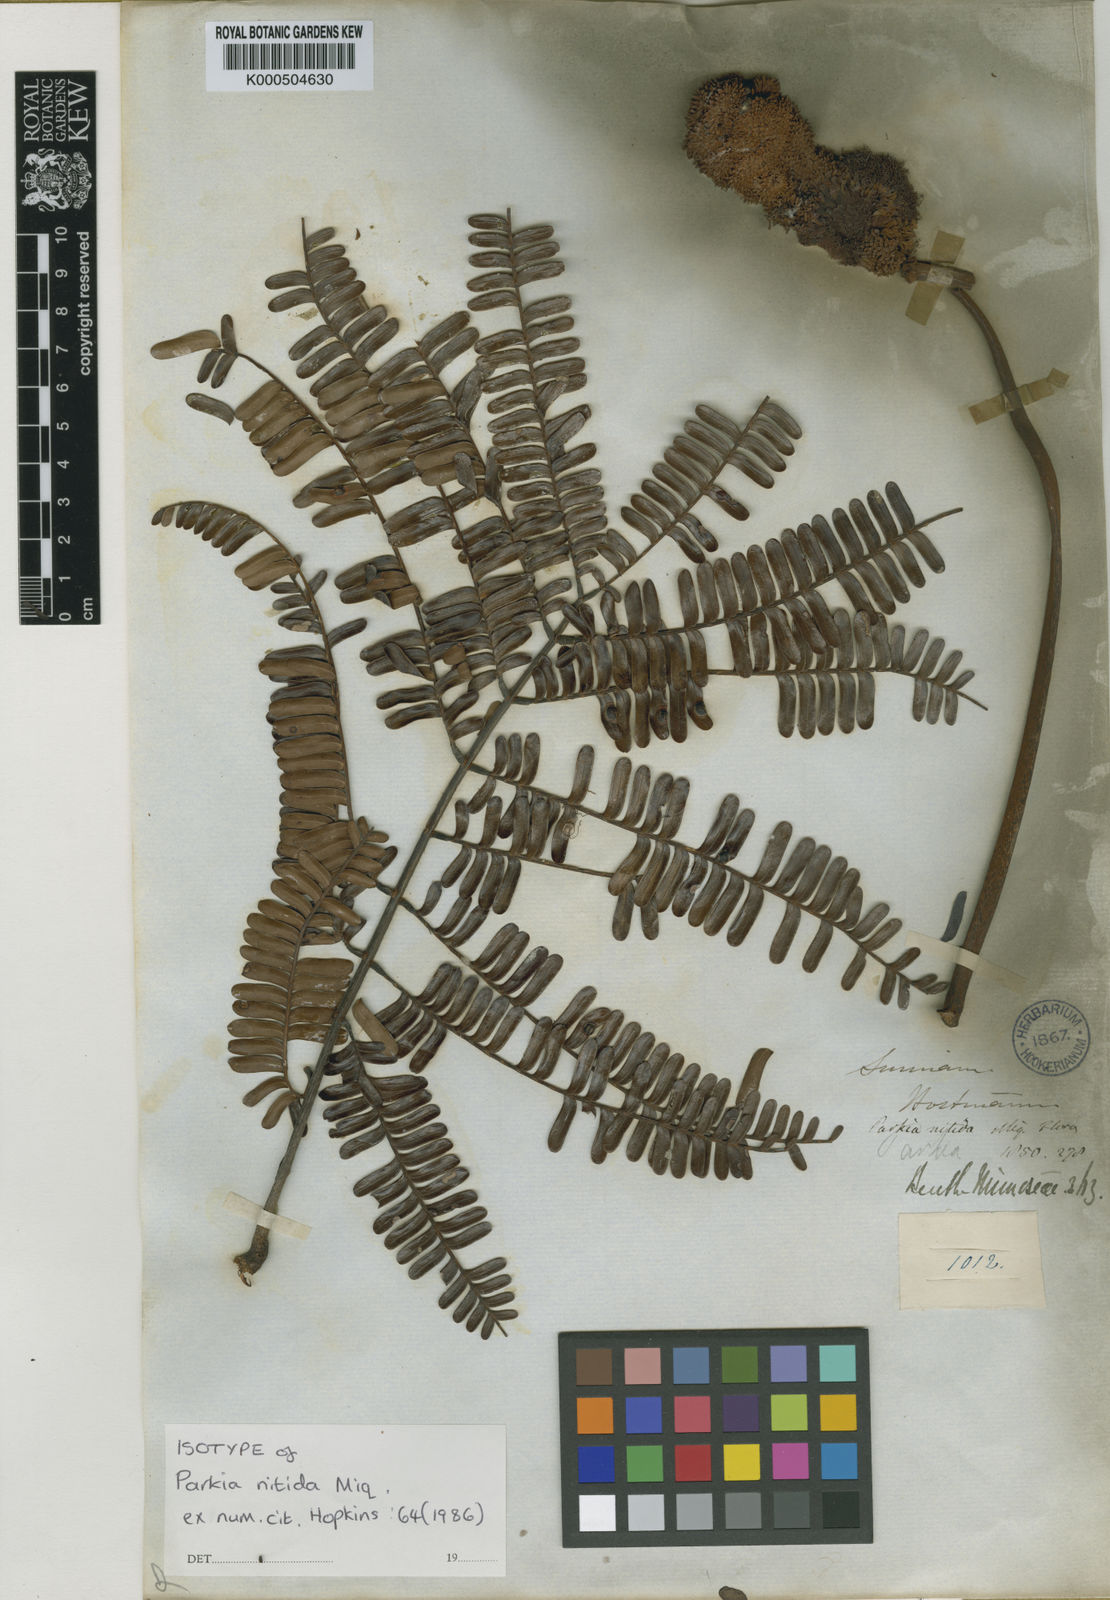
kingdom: Plantae
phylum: Tracheophyta
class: Magnoliopsida
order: Fabales
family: Fabaceae
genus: Parkia
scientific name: Parkia nitida
